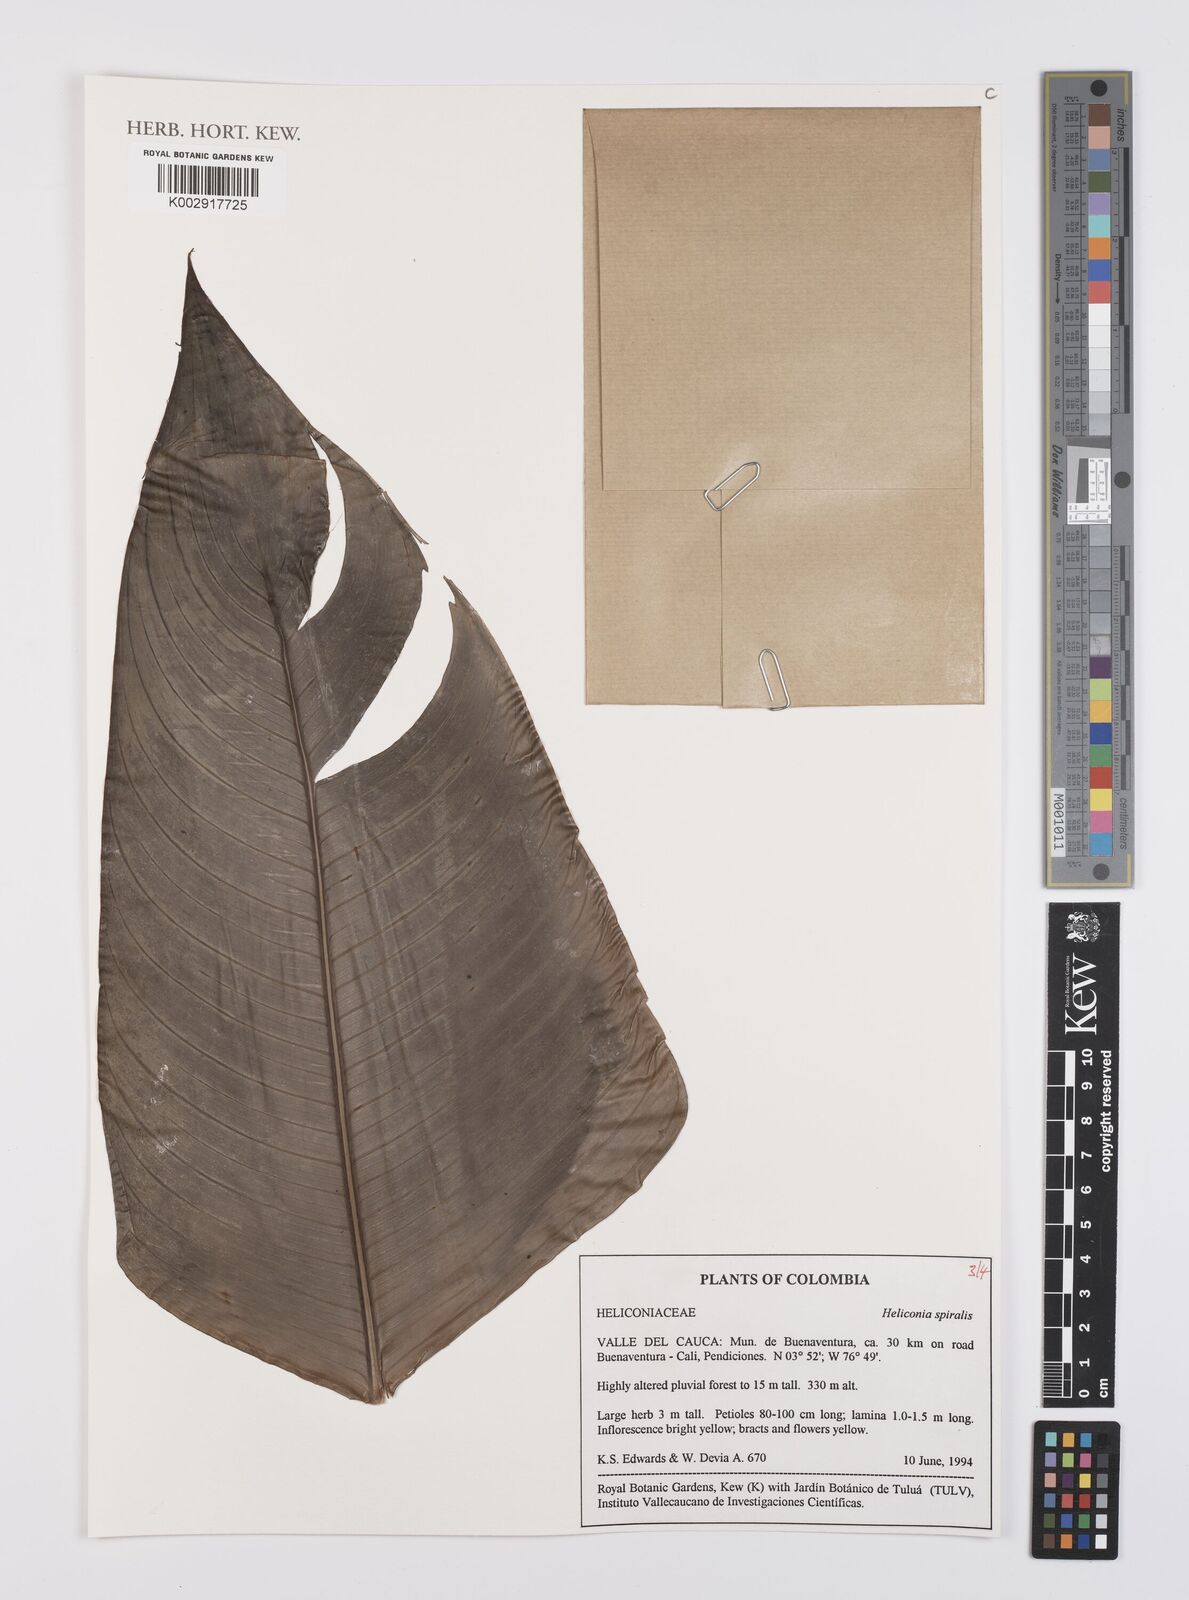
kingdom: Plantae
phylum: Tracheophyta
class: Liliopsida
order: Zingiberales
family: Heliconiaceae
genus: Heliconia
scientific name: Heliconia spiralis
